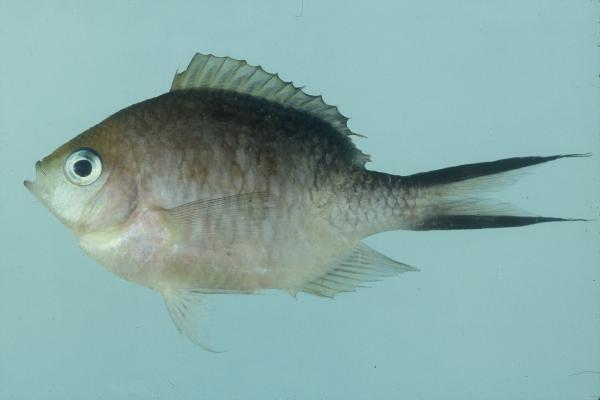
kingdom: Animalia
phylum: Chordata
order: Perciformes
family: Pomacentridae
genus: Chromis
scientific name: Chromis ternatensis
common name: Ternate chromis
